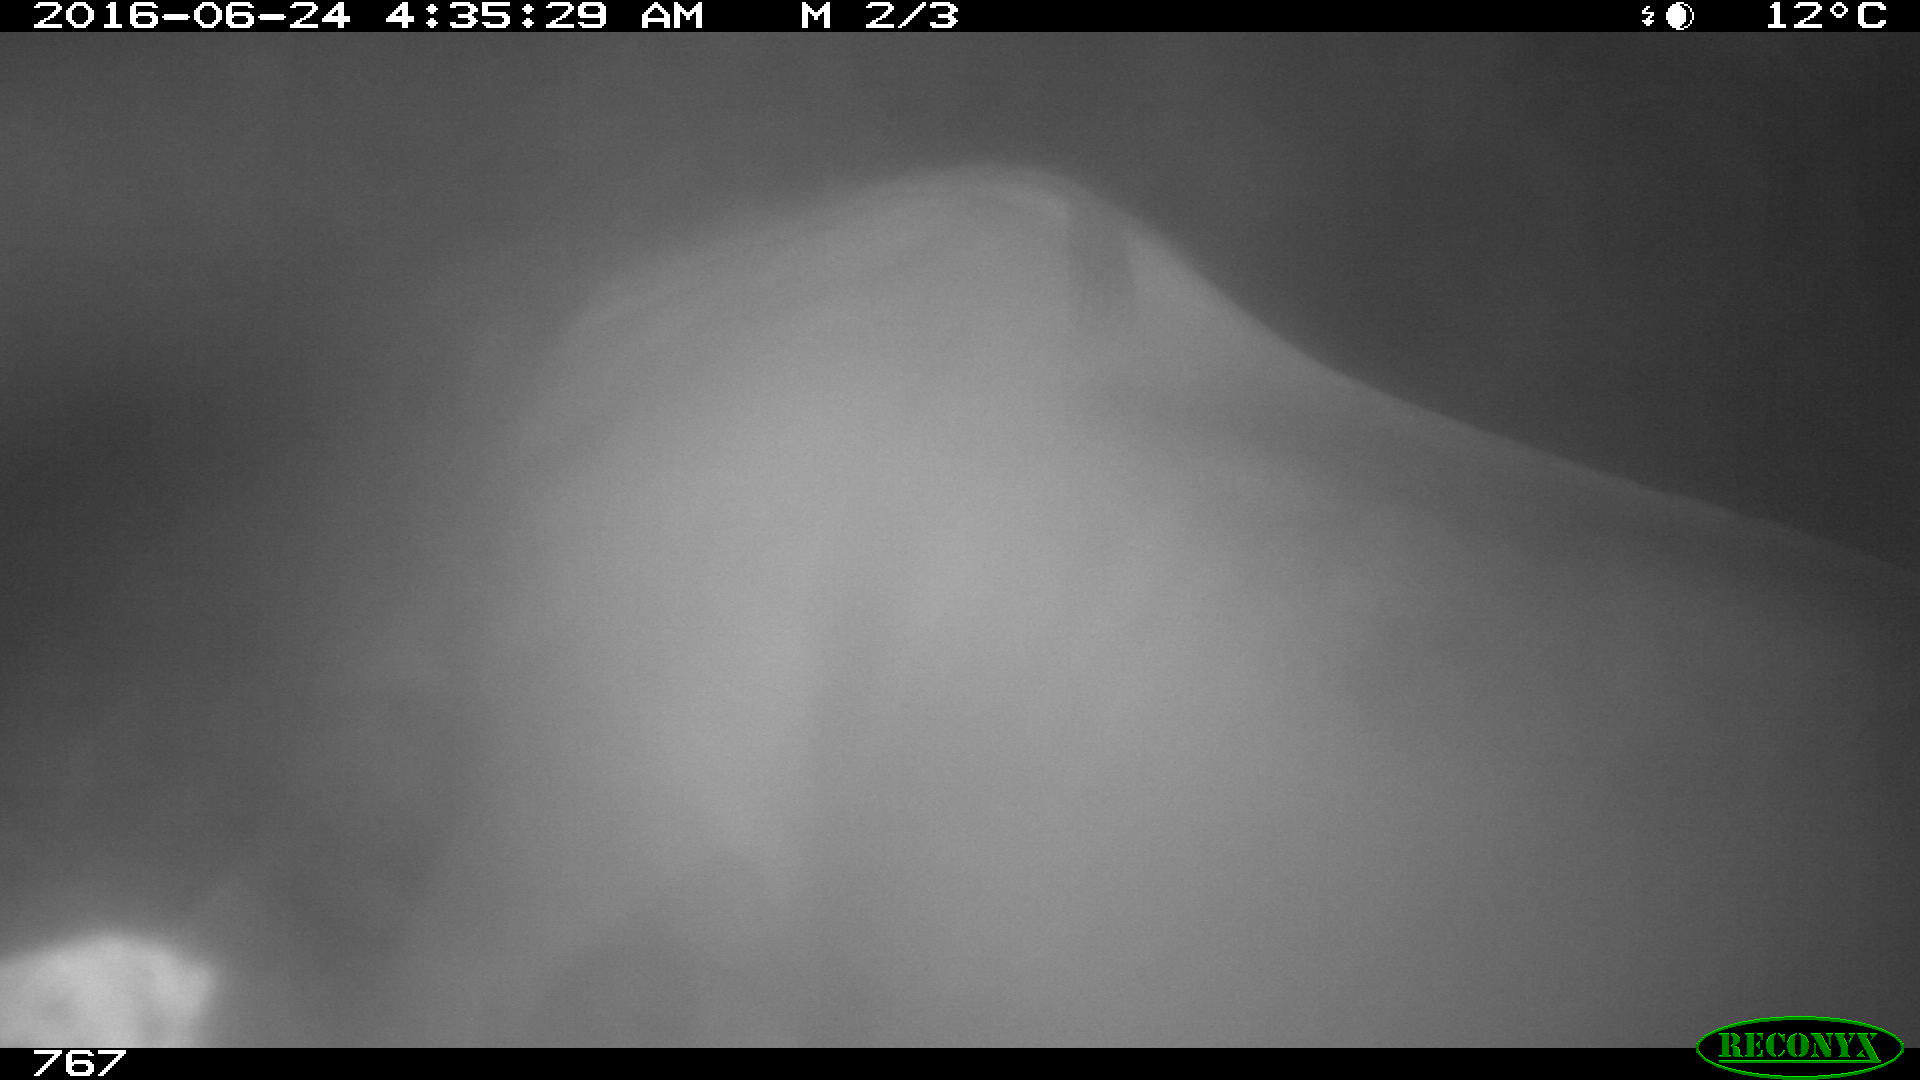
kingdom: Animalia
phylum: Chordata
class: Mammalia
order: Perissodactyla
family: Equidae
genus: Equus
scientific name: Equus caballus
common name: Horse
